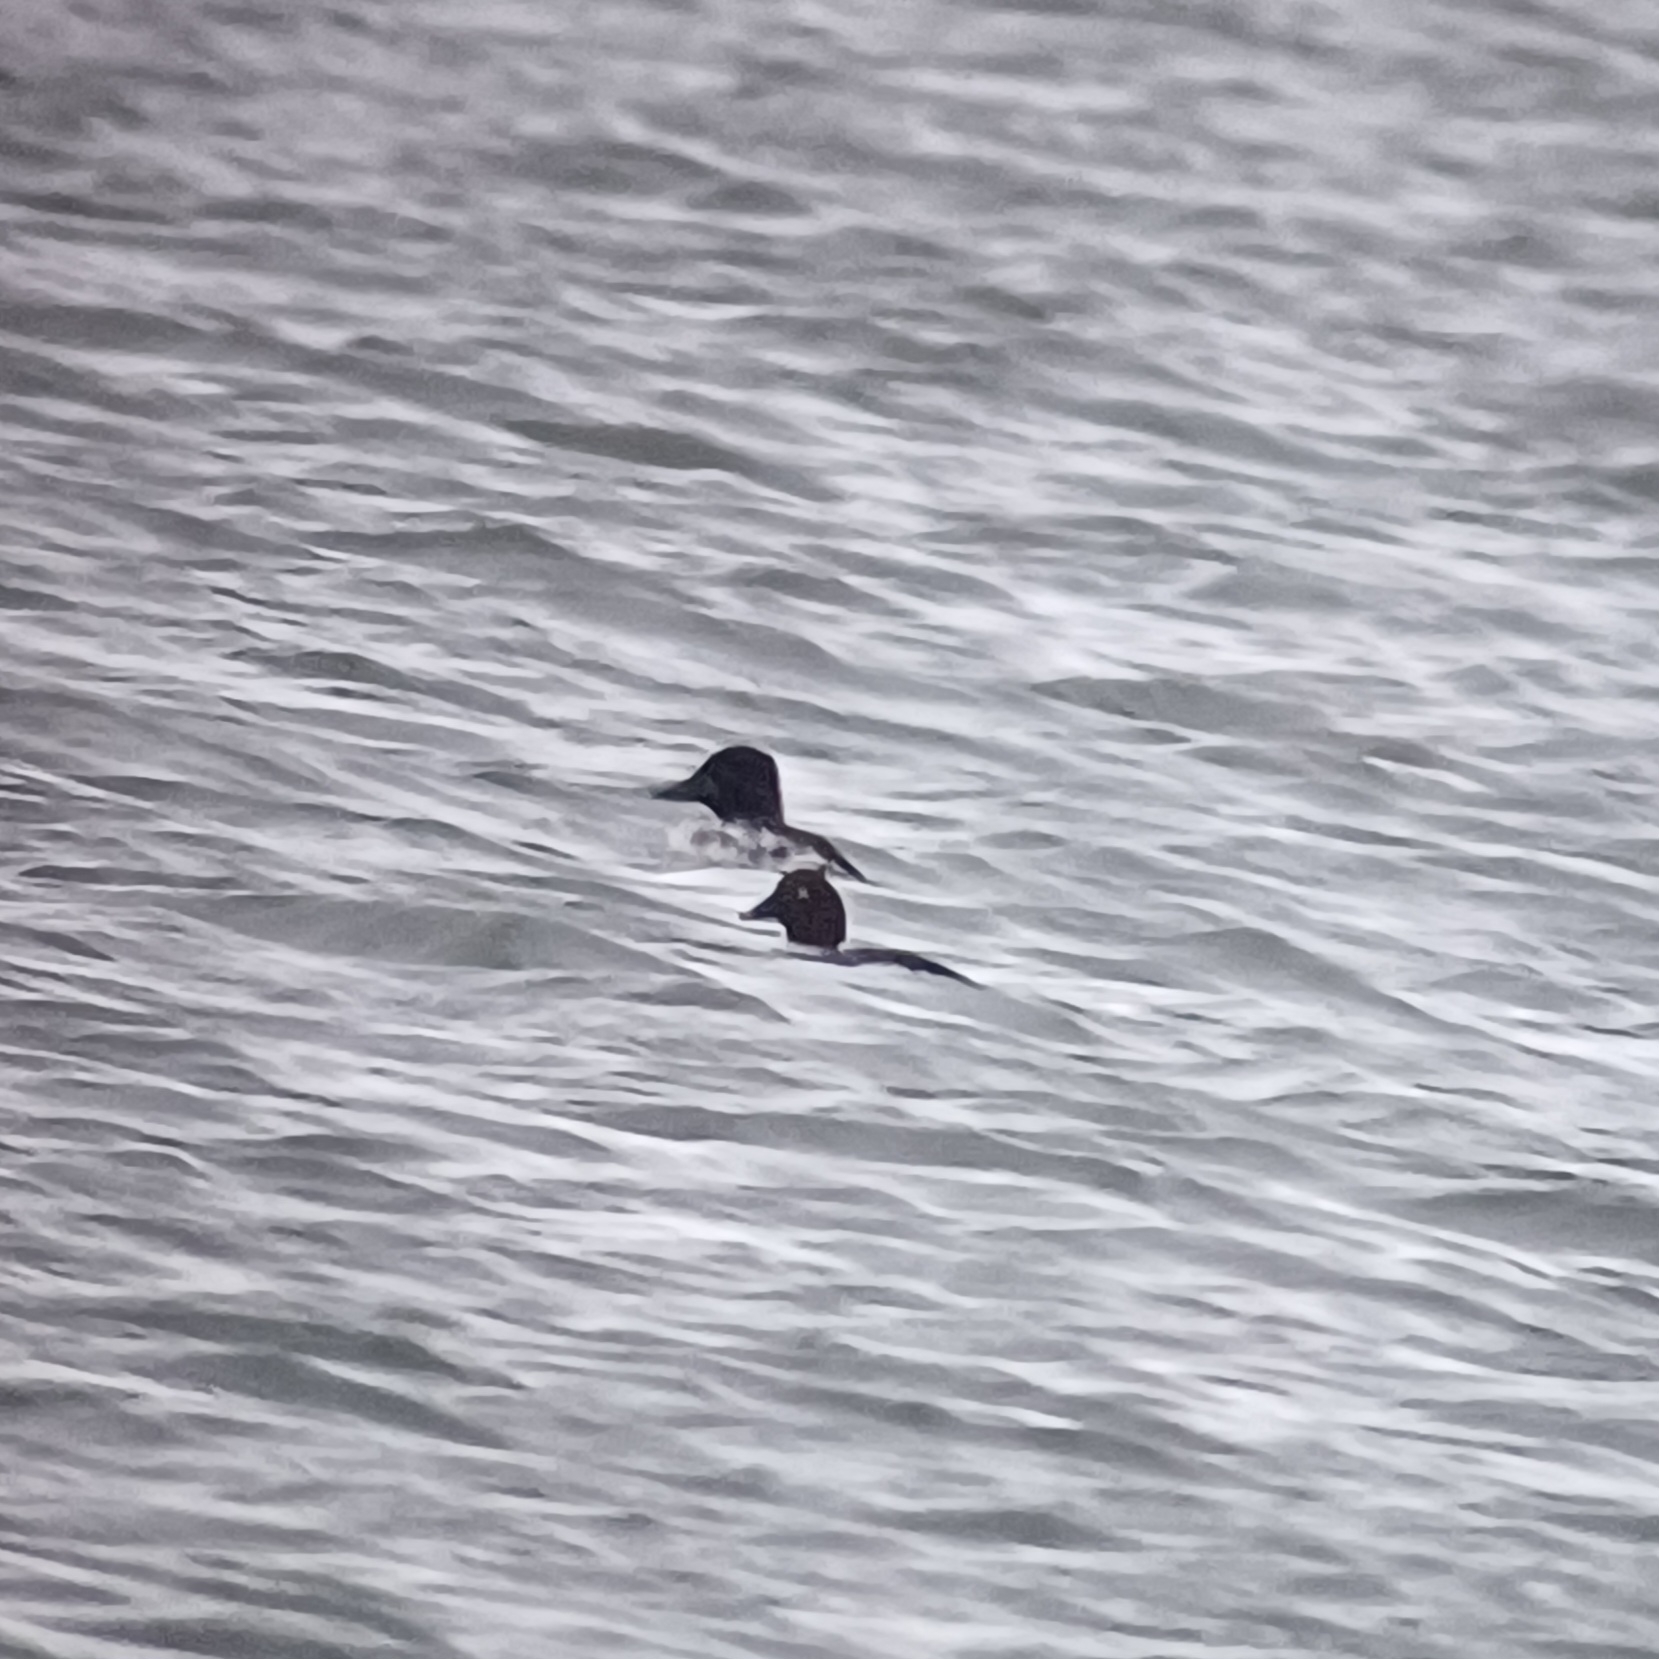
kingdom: Animalia
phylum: Chordata
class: Aves
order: Anseriformes
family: Anatidae
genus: Bucephala
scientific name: Bucephala clangula
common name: Hvinand
